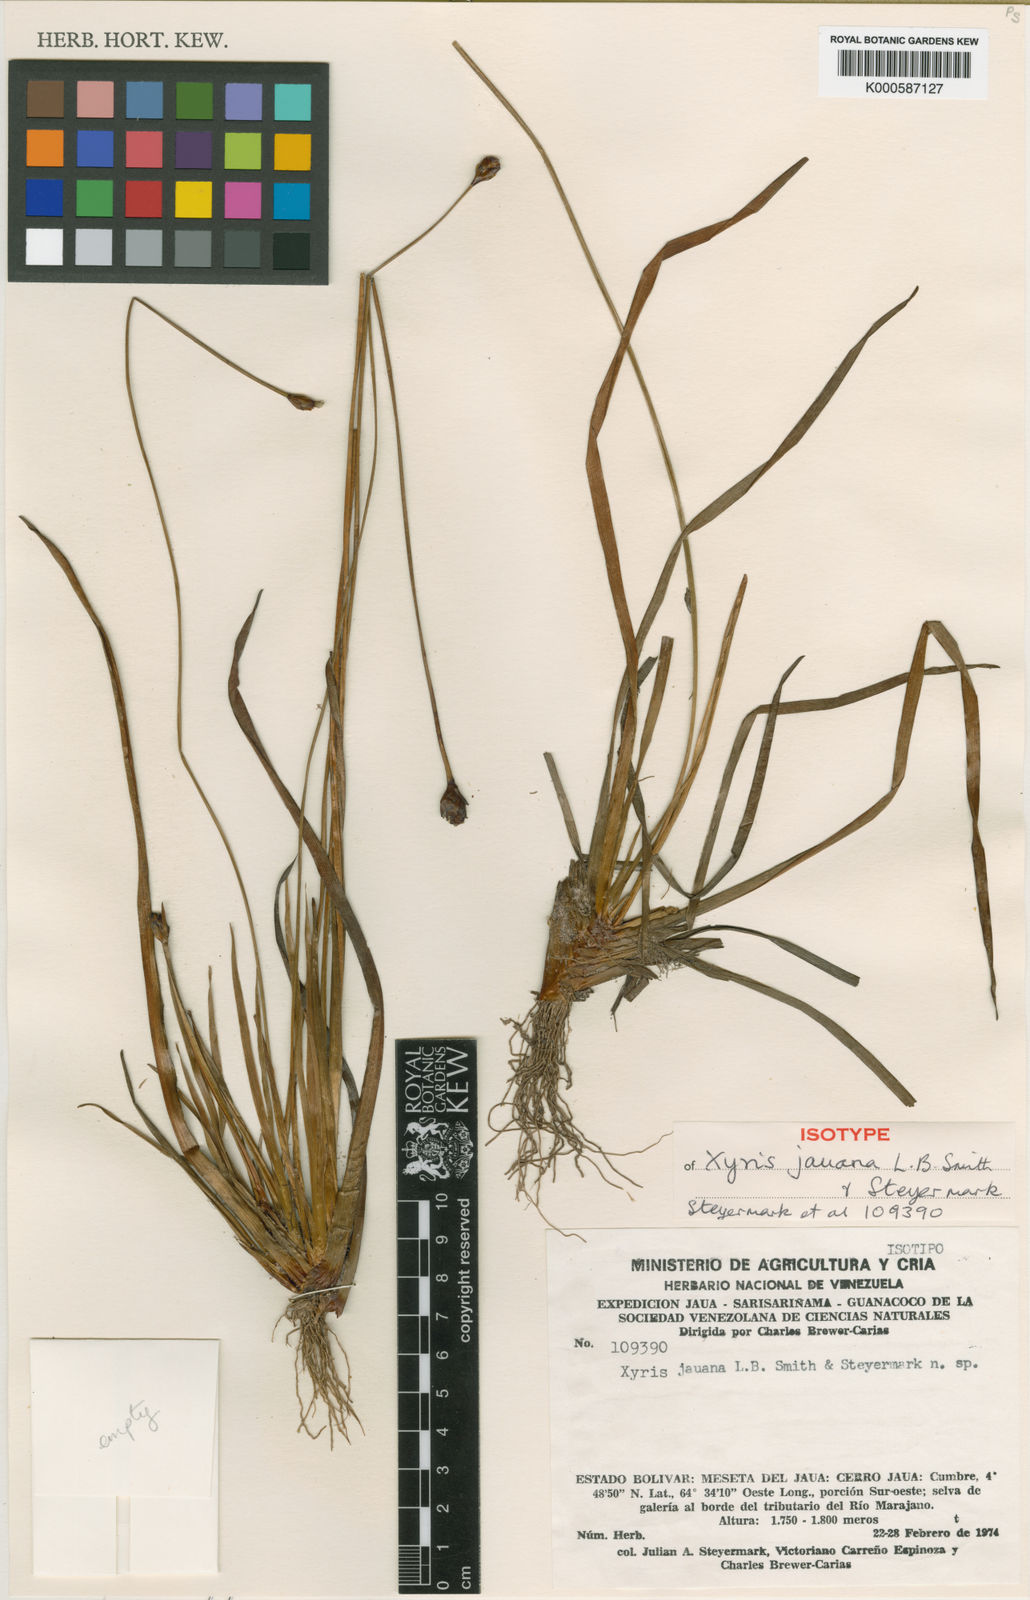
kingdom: Plantae
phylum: Tracheophyta
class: Liliopsida
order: Poales
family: Xyridaceae
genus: Xyris
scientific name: Xyris thysanolepis
